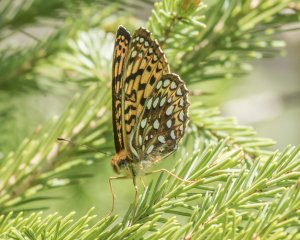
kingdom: Animalia
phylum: Arthropoda
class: Insecta
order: Lepidoptera
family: Nymphalidae
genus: Speyeria
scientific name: Speyeria atlantis
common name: Atlantis Fritillary
